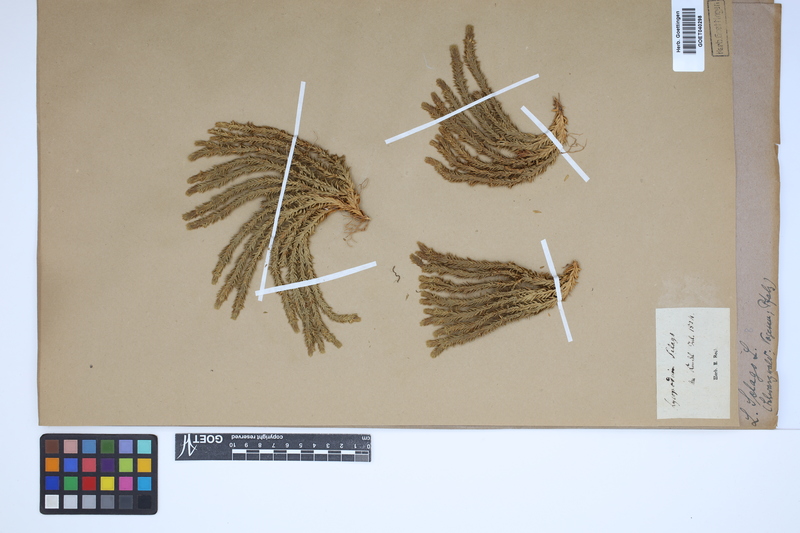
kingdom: Plantae
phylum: Tracheophyta
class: Lycopodiopsida
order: Lycopodiales
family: Lycopodiaceae
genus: Huperzia
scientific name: Huperzia selago
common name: Northern firmoss
